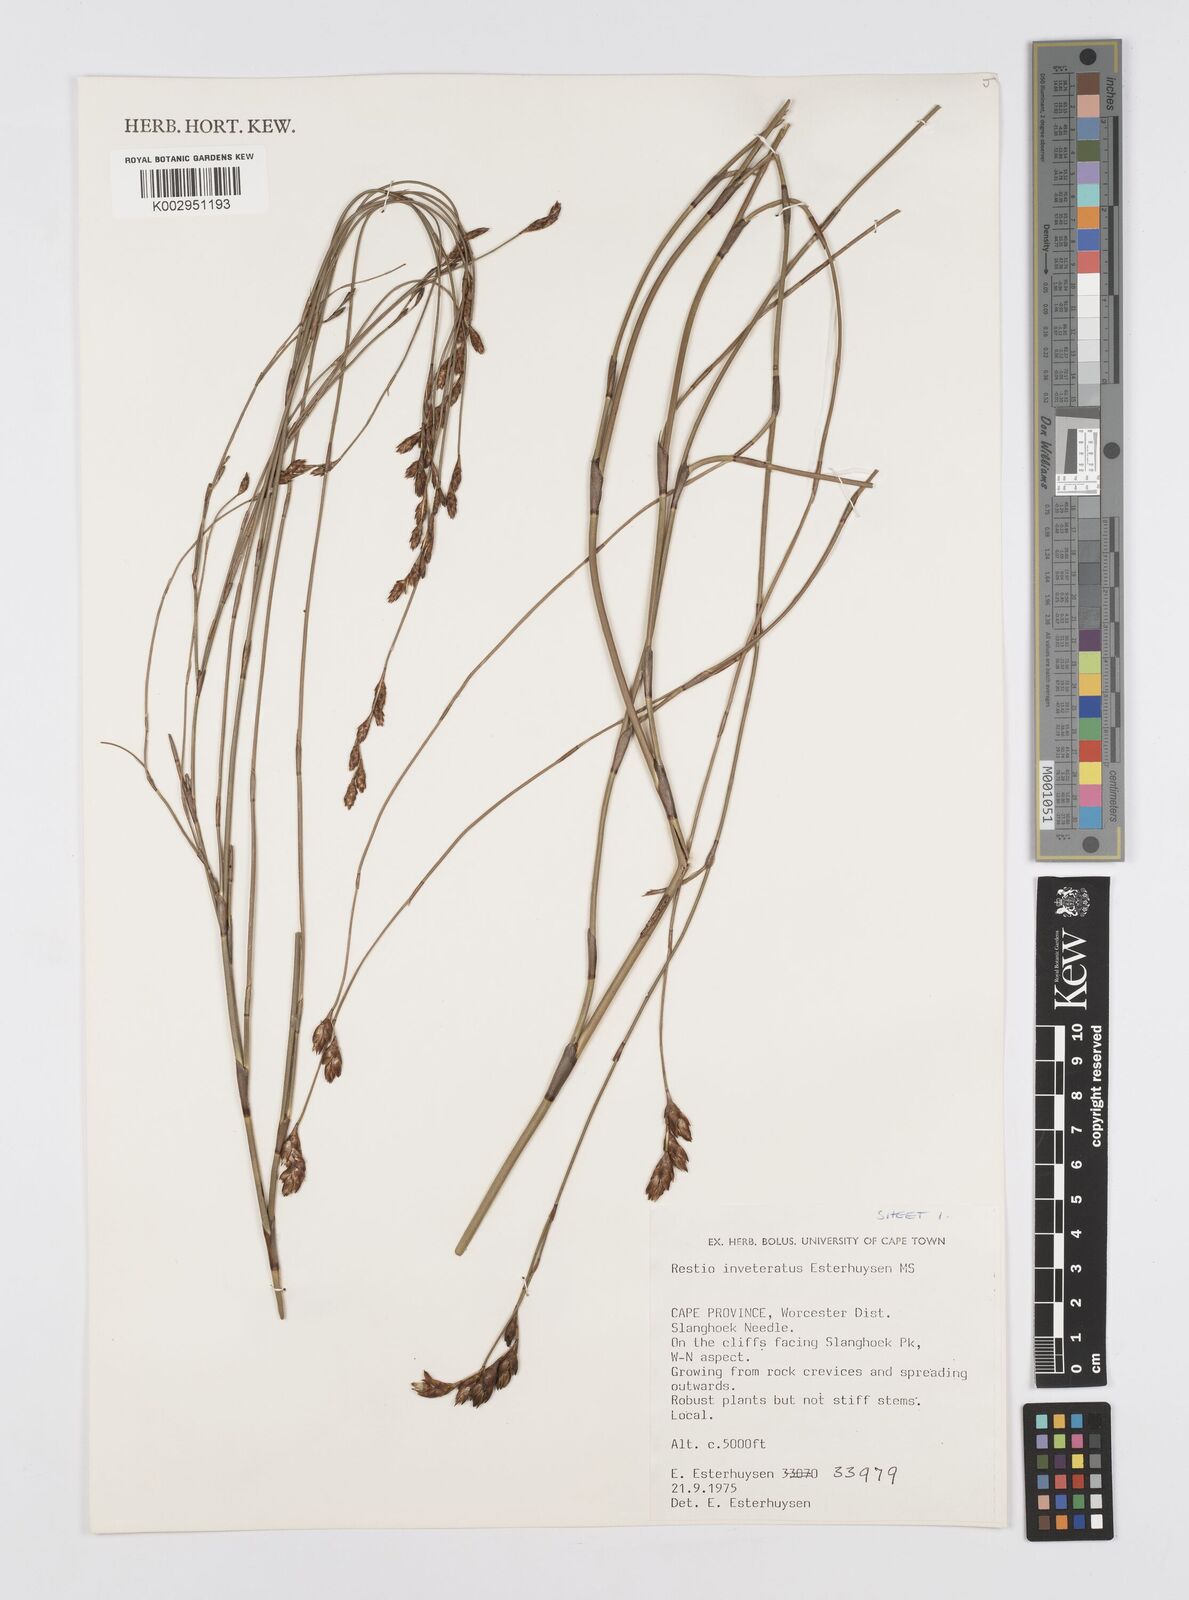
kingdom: Plantae
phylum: Tracheophyta
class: Liliopsida
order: Poales
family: Restionaceae
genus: Restio
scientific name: Restio inveteratus
